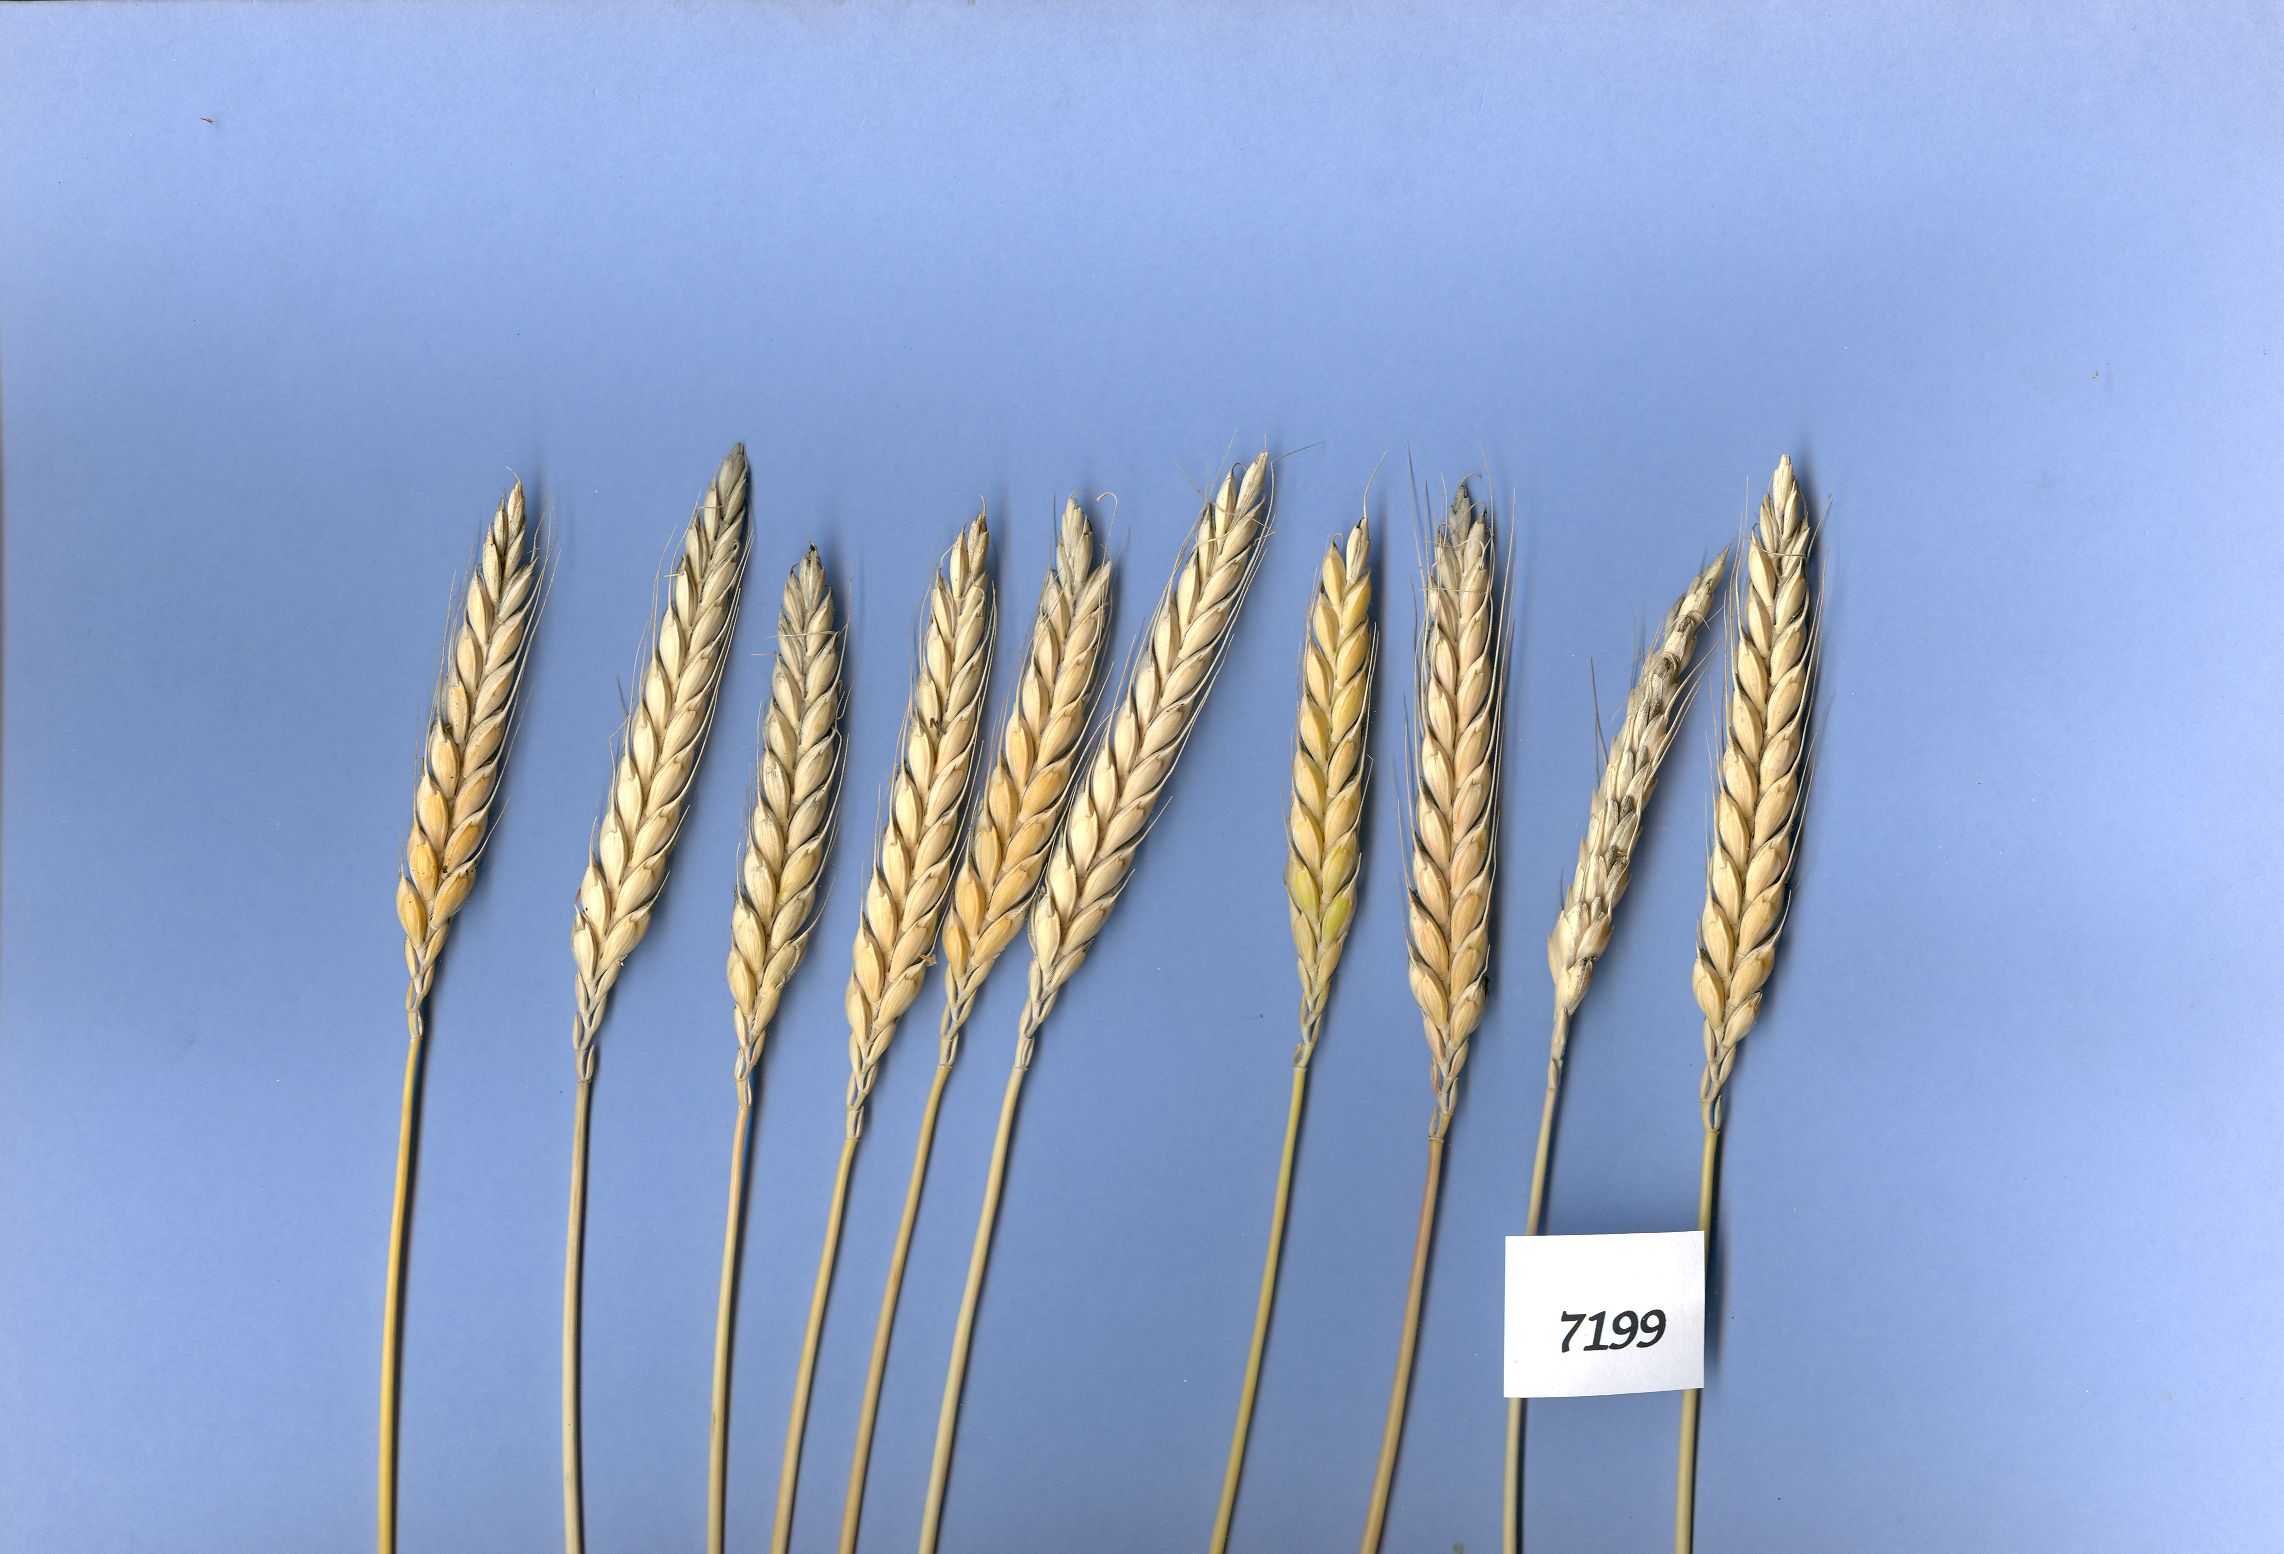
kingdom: Plantae
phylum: Tracheophyta
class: Liliopsida
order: Poales
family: Poaceae
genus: Triticum
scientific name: Triticum aestivum
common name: Common wheat
